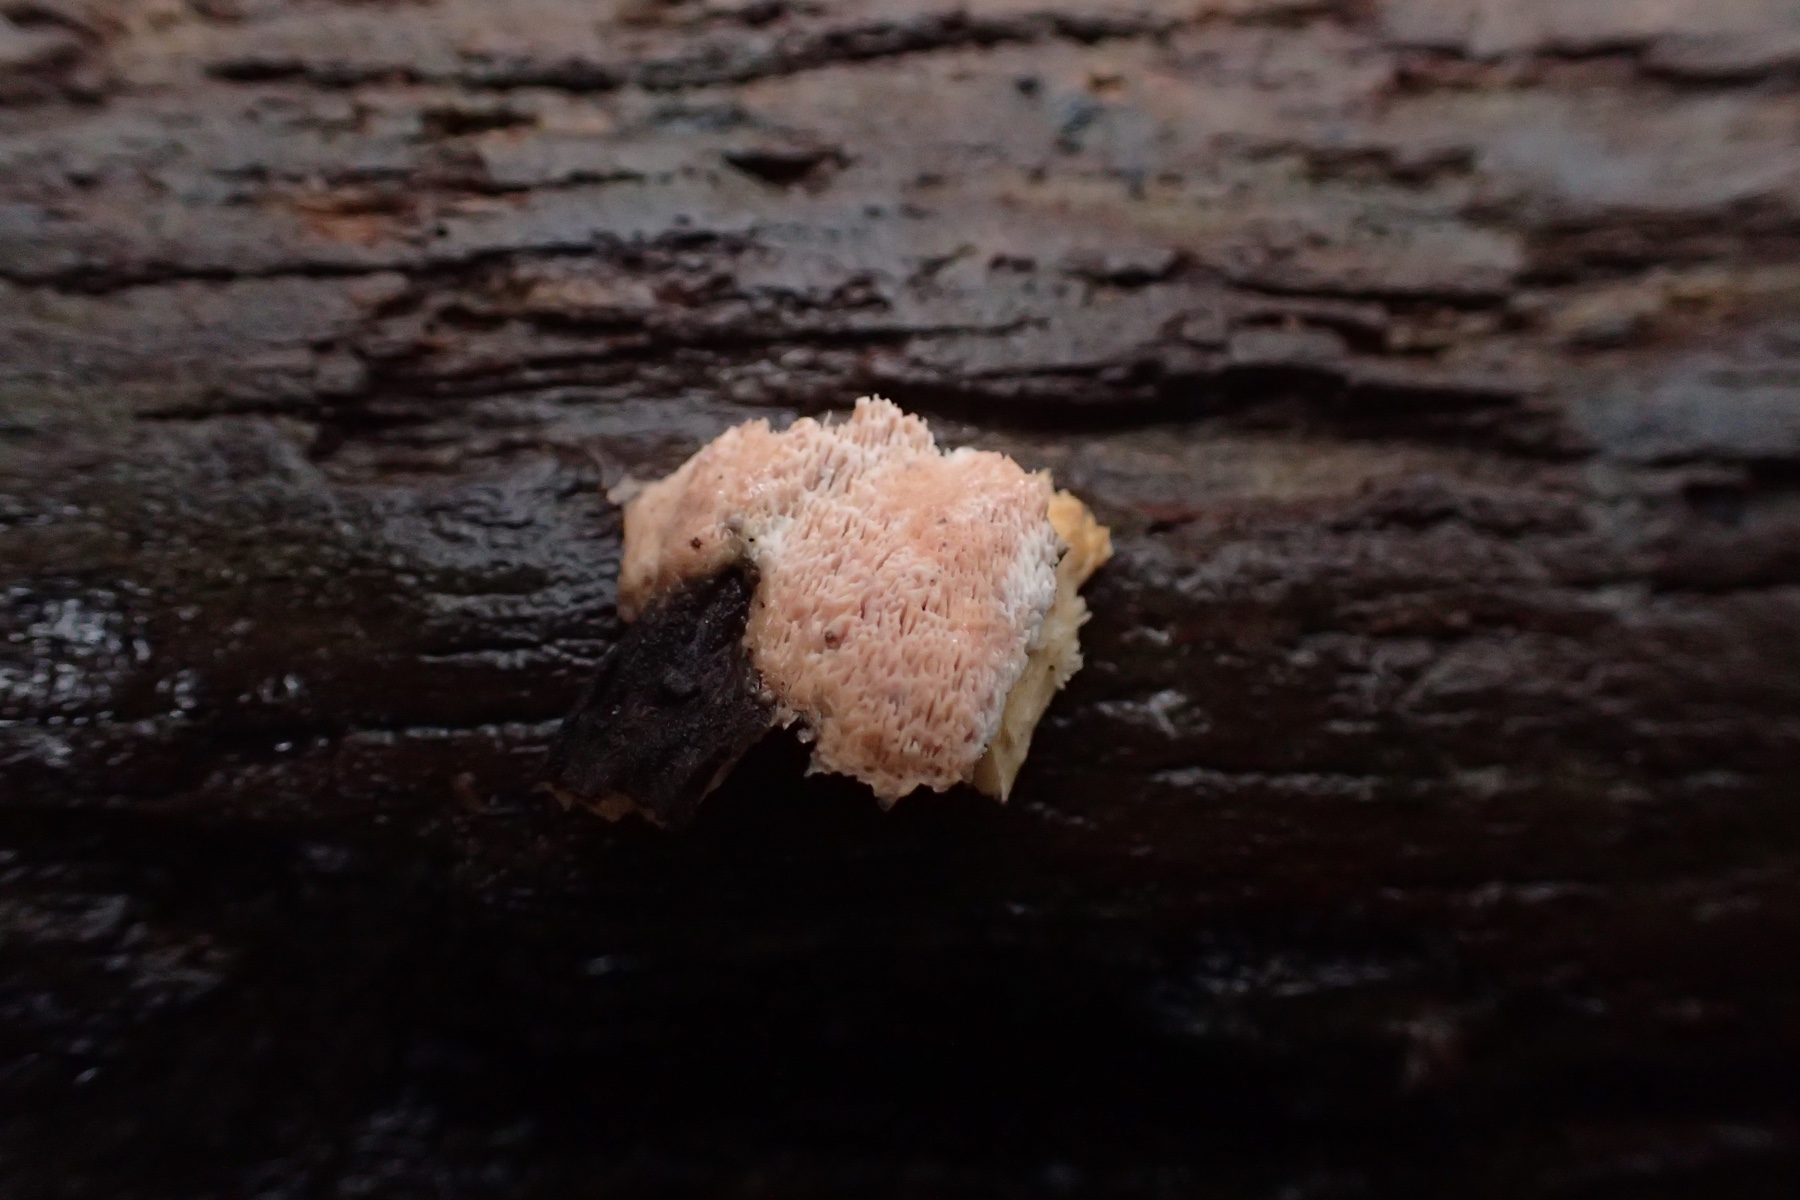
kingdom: Fungi
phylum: Basidiomycota
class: Agaricomycetes
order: Polyporales
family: Meruliaceae
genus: Mycoacia
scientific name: Mycoacia gilvescens
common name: rosa pastelporesvamp
